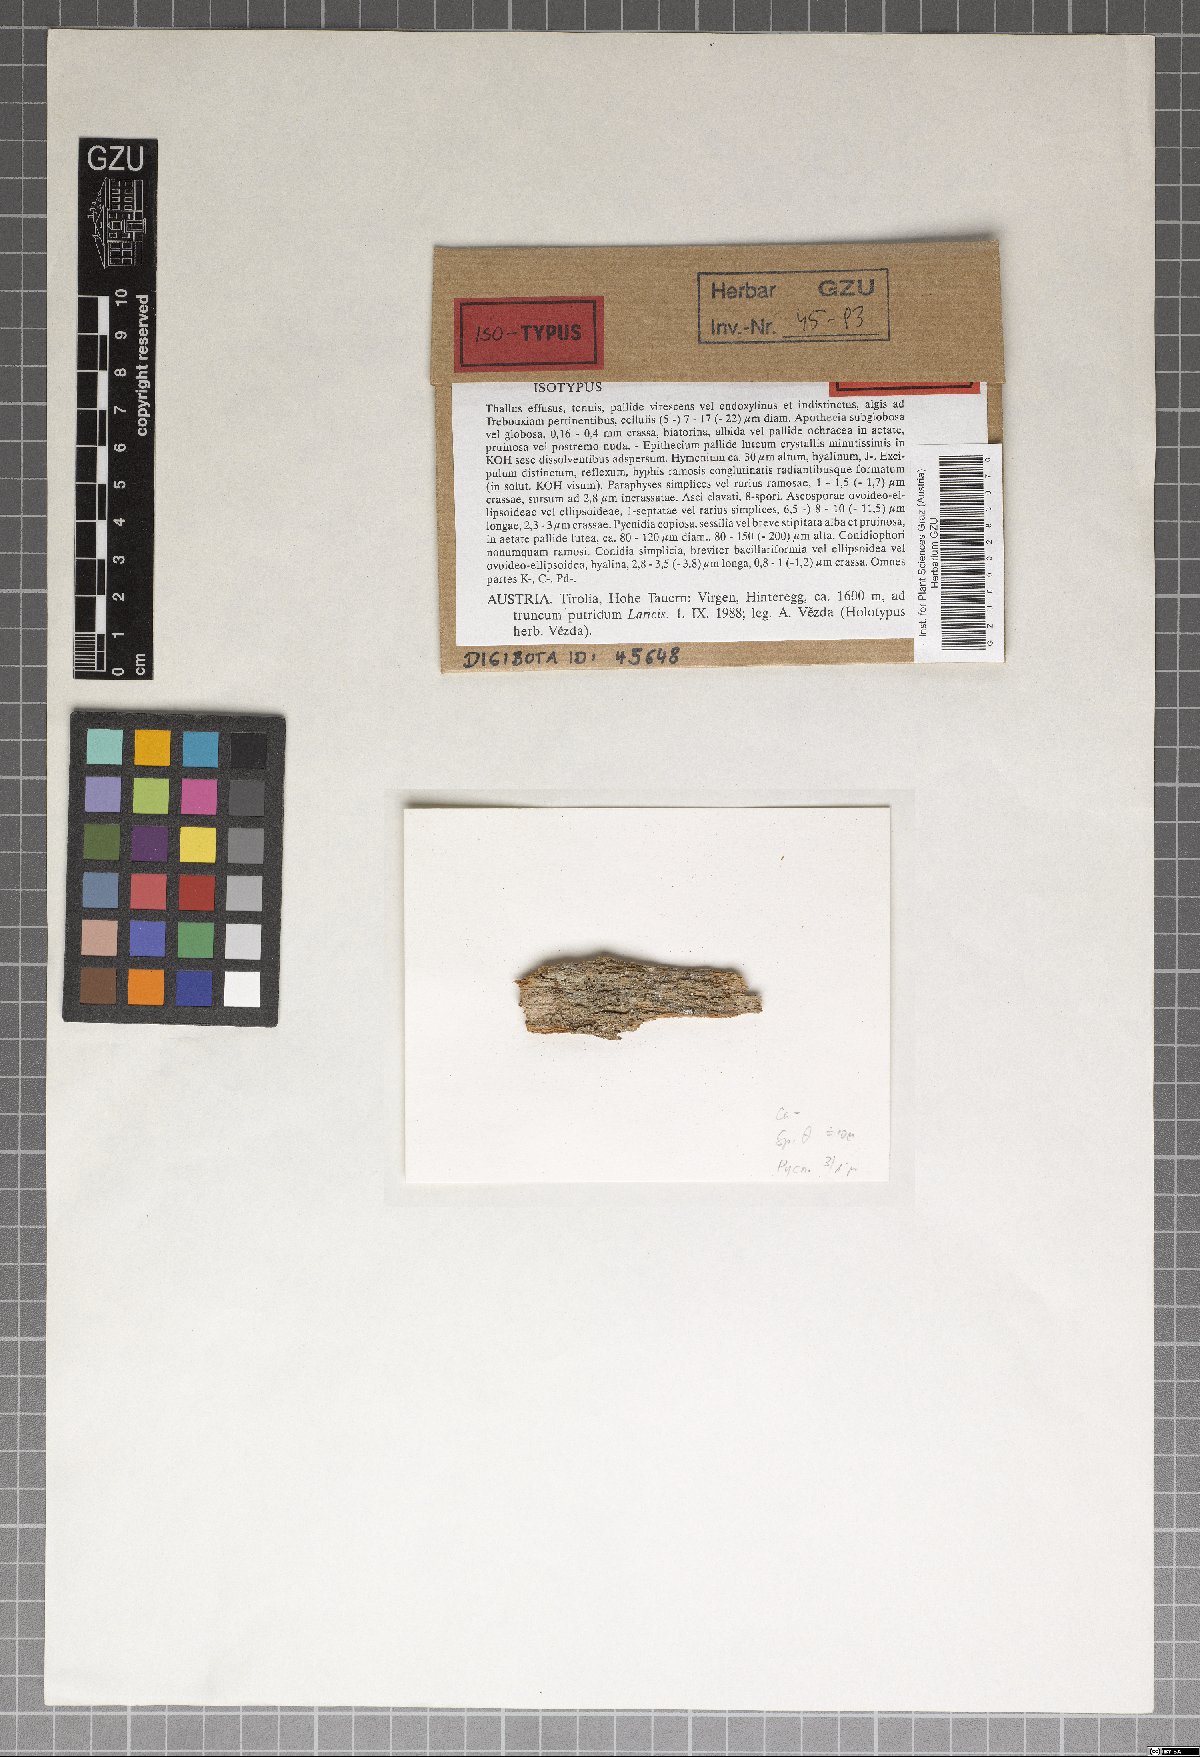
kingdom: Fungi
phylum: Ascomycota
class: Lecanoromycetes
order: Lecanorales
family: Ramalinaceae
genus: Biatora
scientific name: Biatora veteranorum
